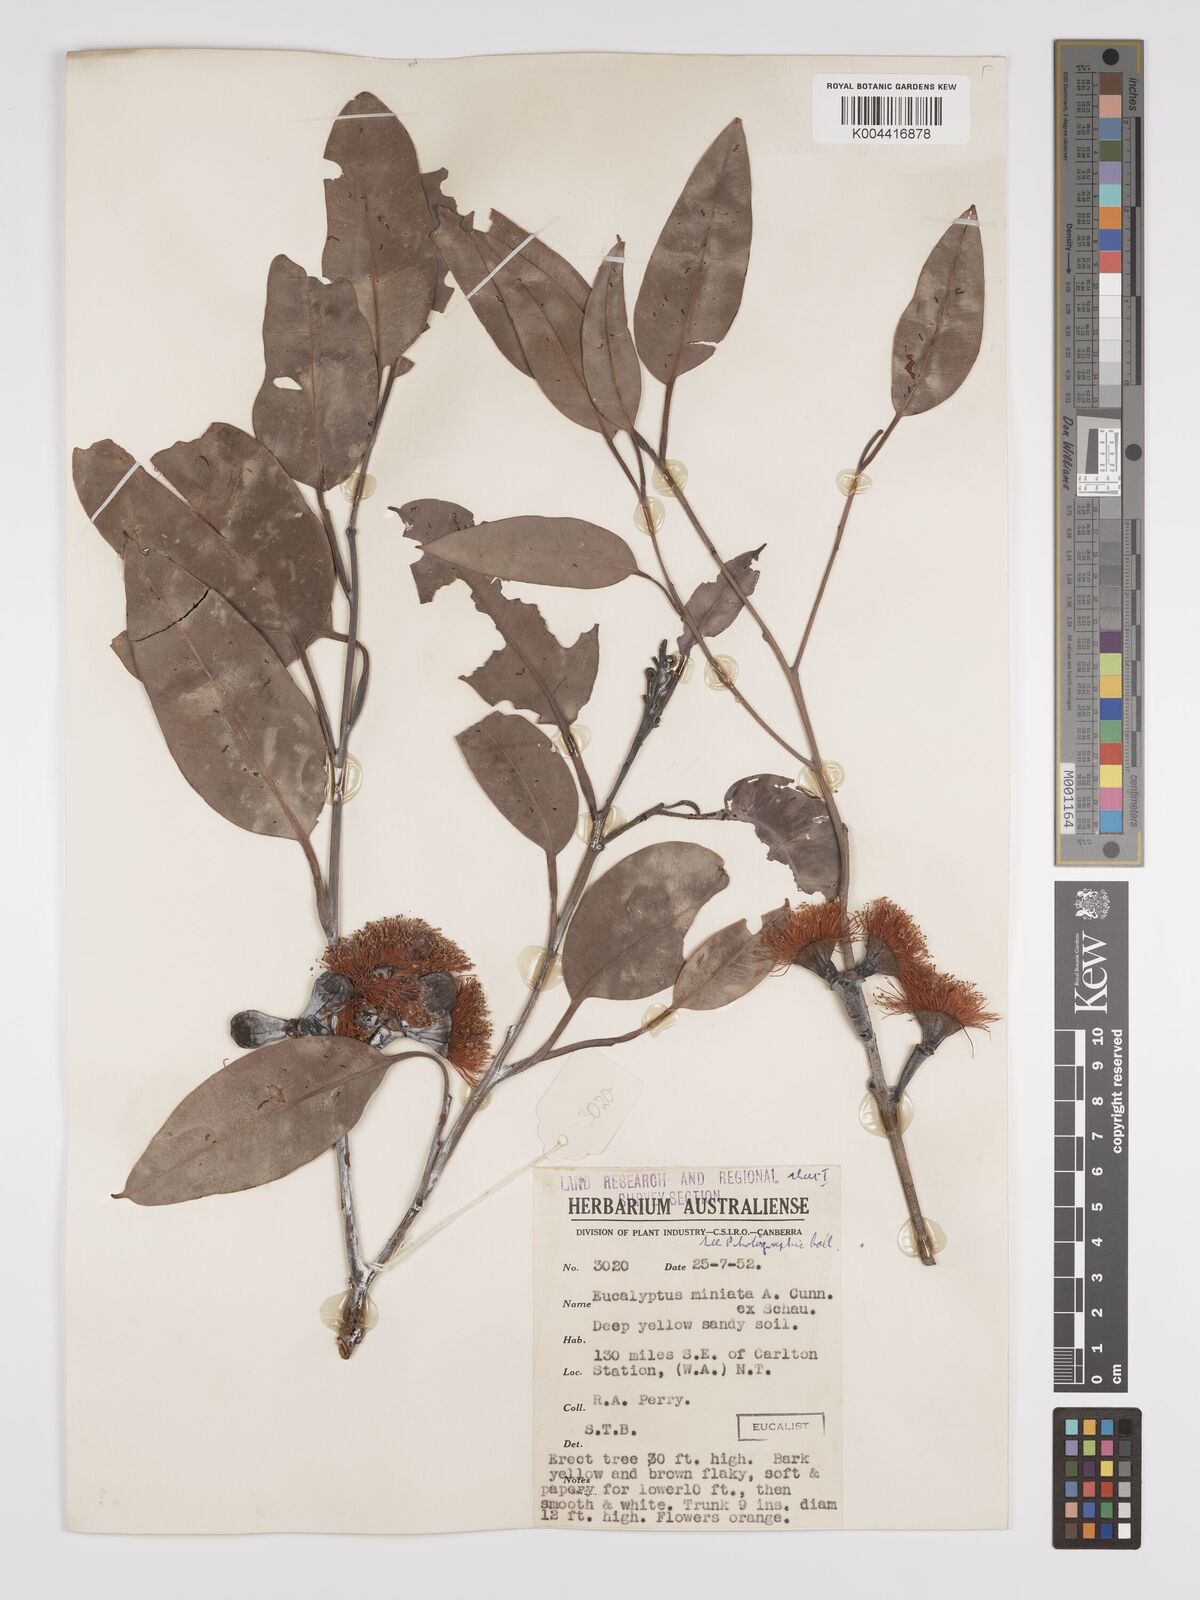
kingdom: Plantae
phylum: Tracheophyta
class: Magnoliopsida
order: Myrtales
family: Myrtaceae
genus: Eucalyptus
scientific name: Eucalyptus miniata
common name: Darwin-woollybutt
